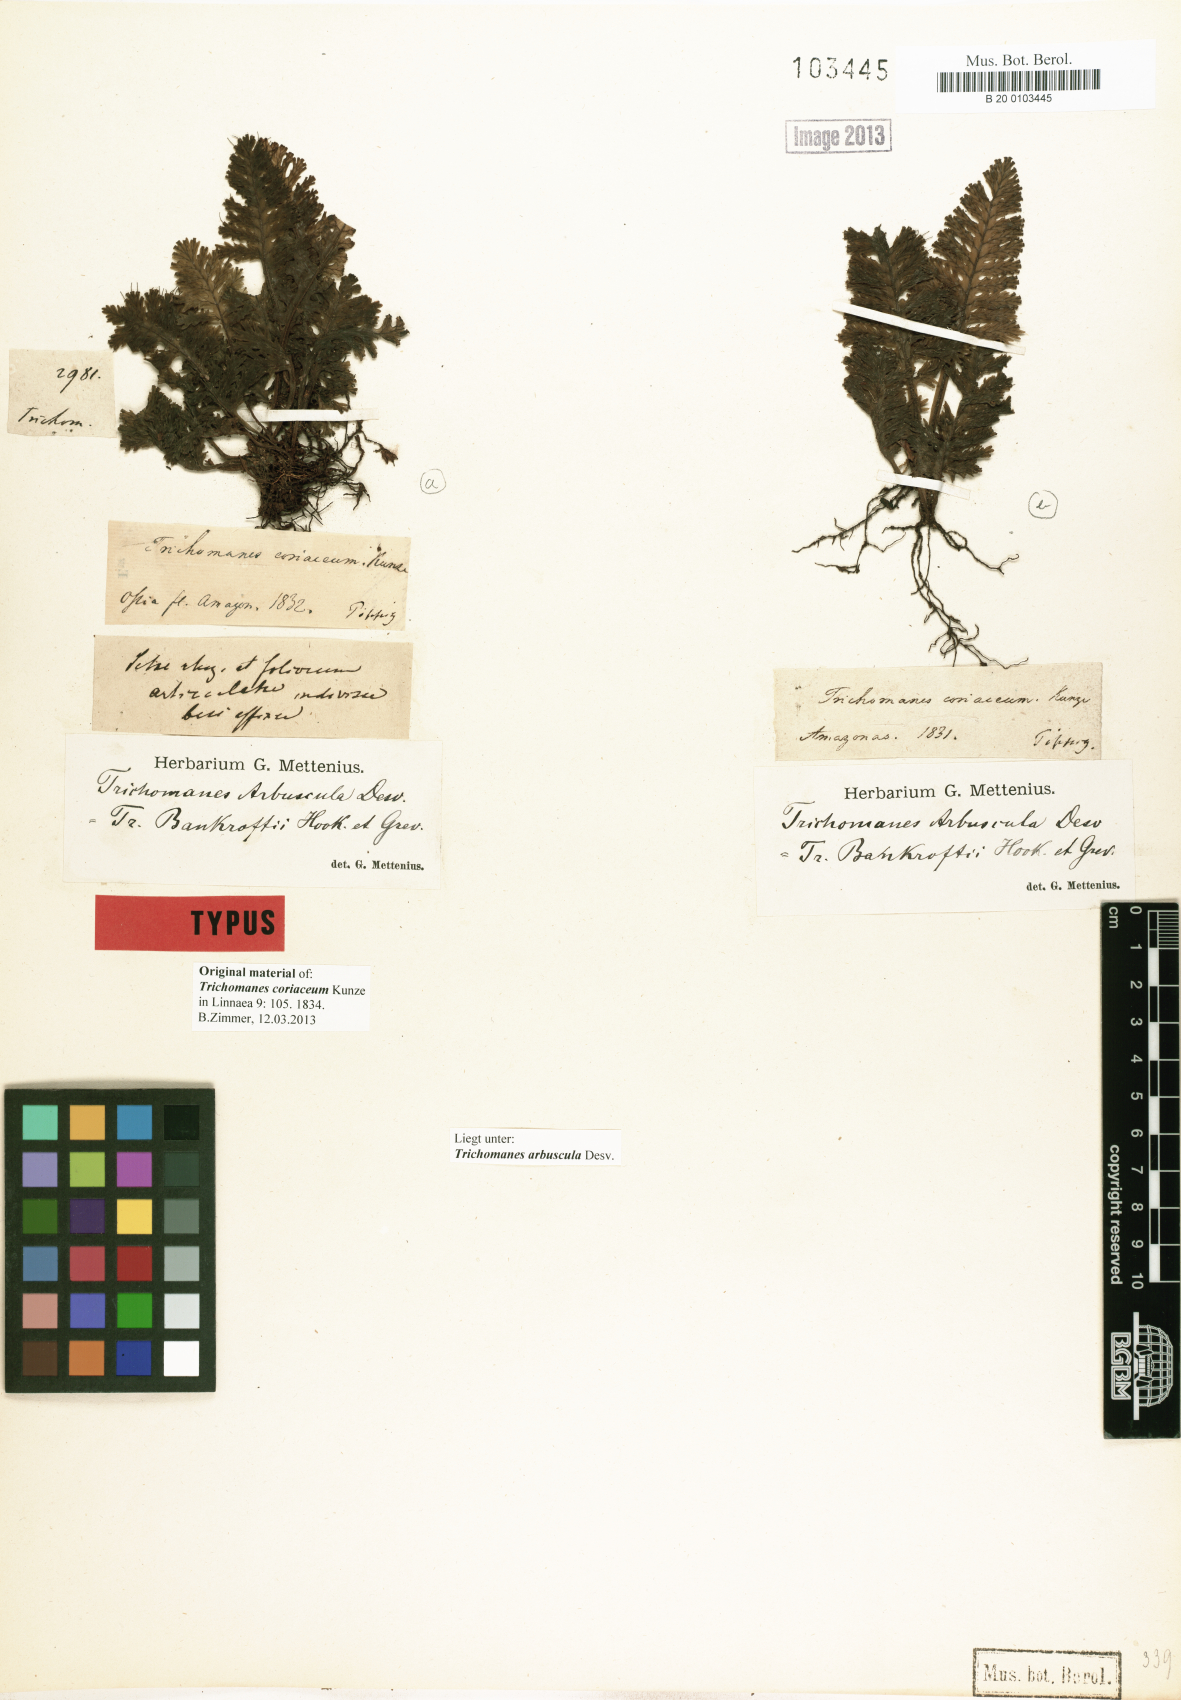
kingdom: Plantae
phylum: Tracheophyta
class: Polypodiopsida
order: Hymenophyllales
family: Hymenophyllaceae
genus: Trichomanes
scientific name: Trichomanes arbuscula
